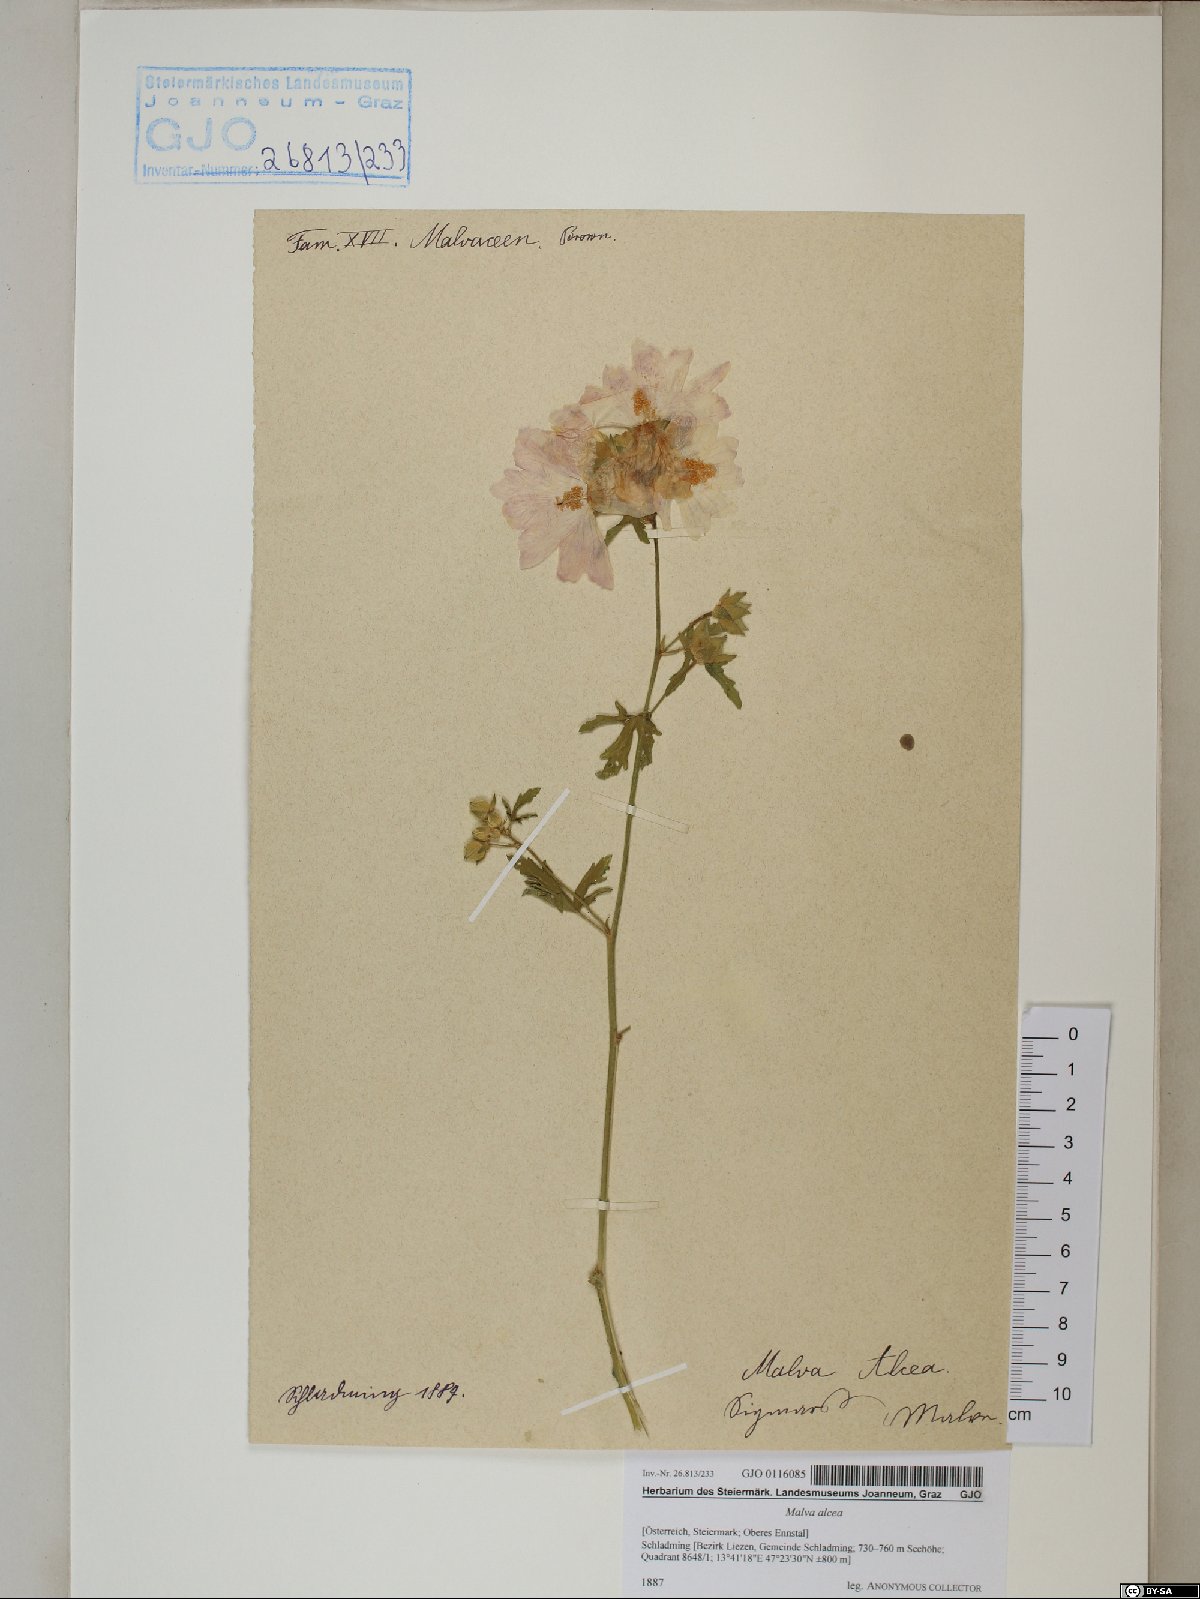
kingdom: Plantae
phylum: Tracheophyta
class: Magnoliopsida
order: Malvales
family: Malvaceae
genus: Malva
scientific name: Malva alcea
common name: Greater musk-mallow
